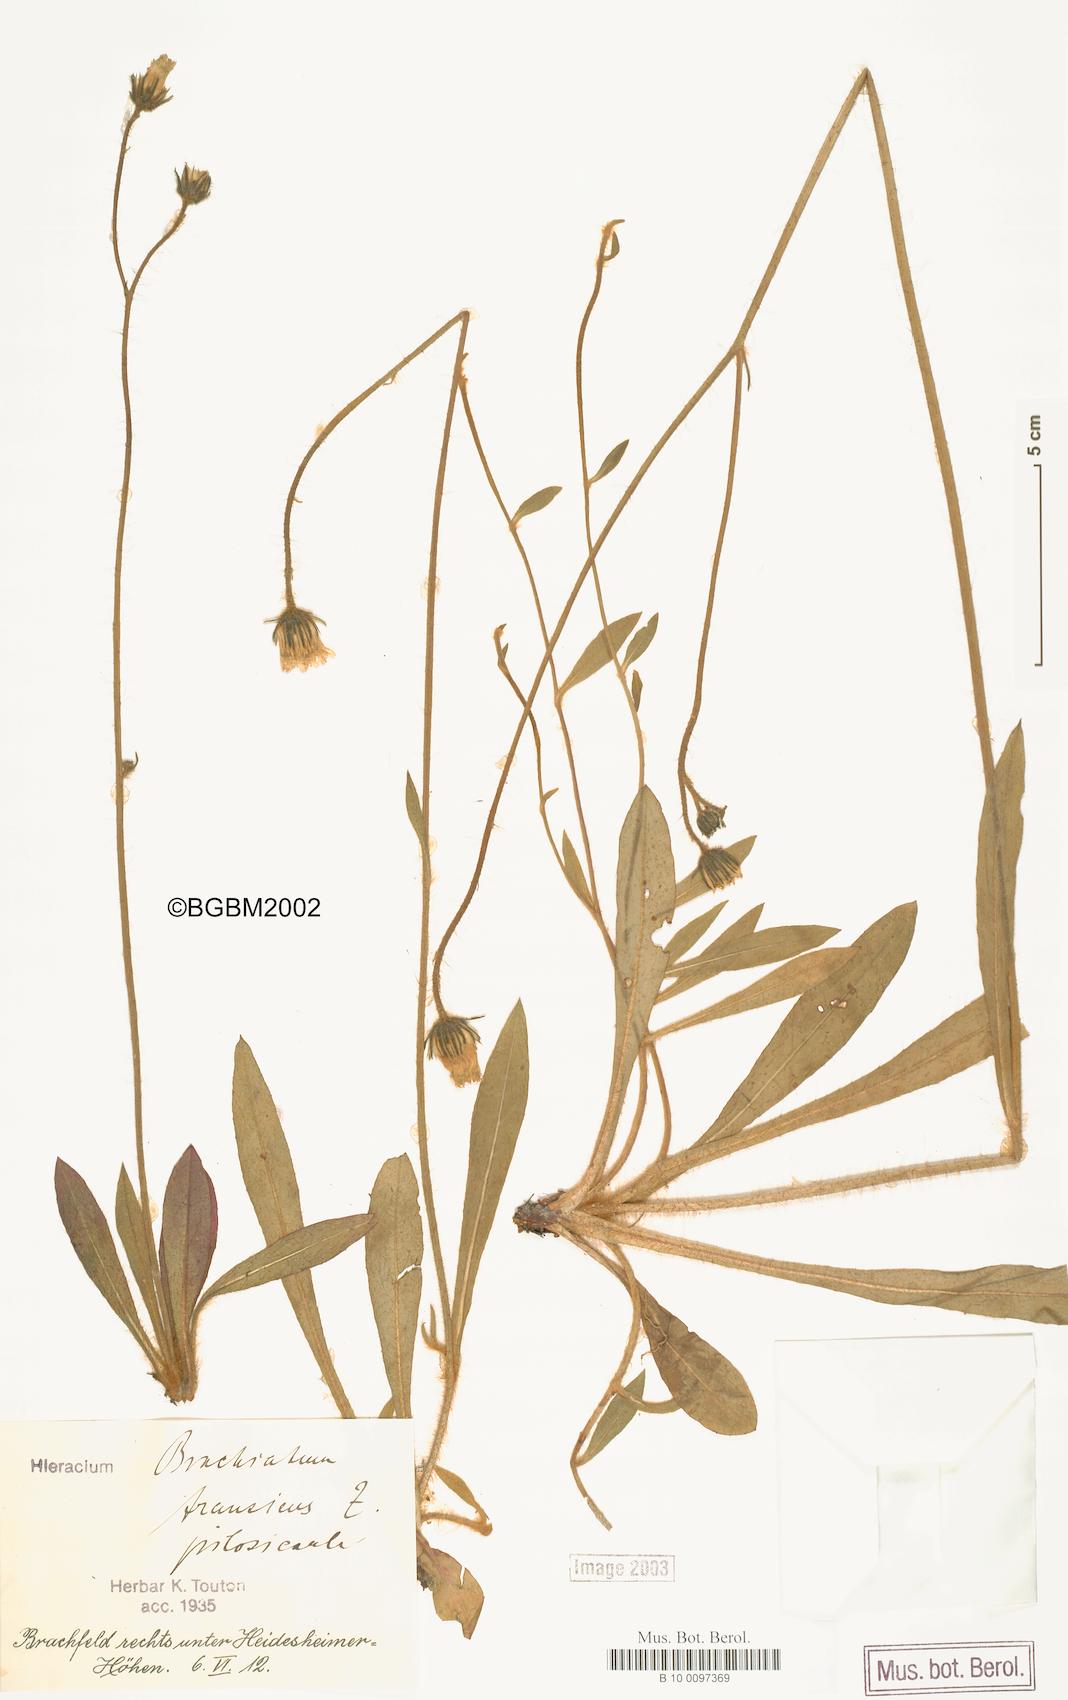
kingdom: Plantae
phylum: Tracheophyta
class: Magnoliopsida
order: Asterales
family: Asteraceae
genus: Pilosella
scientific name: Pilosella acutifolia
